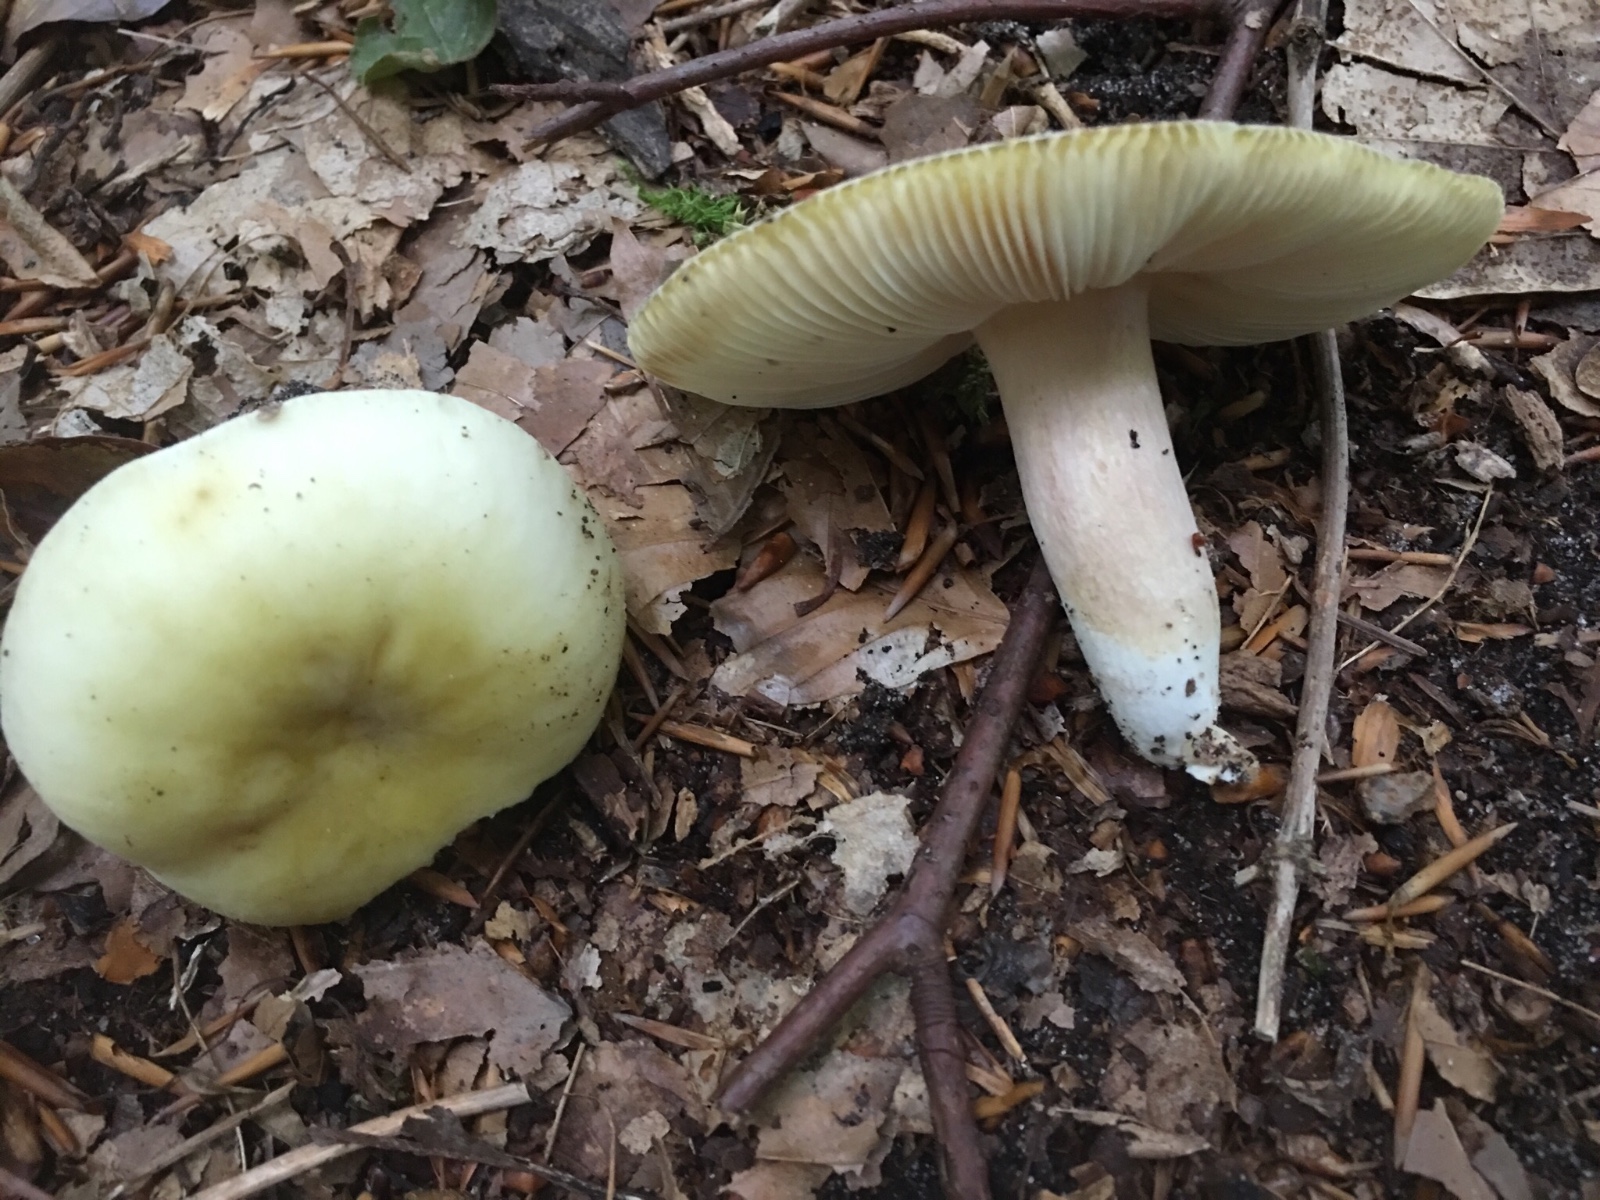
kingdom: Fungi
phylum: Basidiomycota
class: Agaricomycetes
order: Russulales
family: Russulaceae
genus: Russula
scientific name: Russula violeipes
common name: ferskengul skørhat
